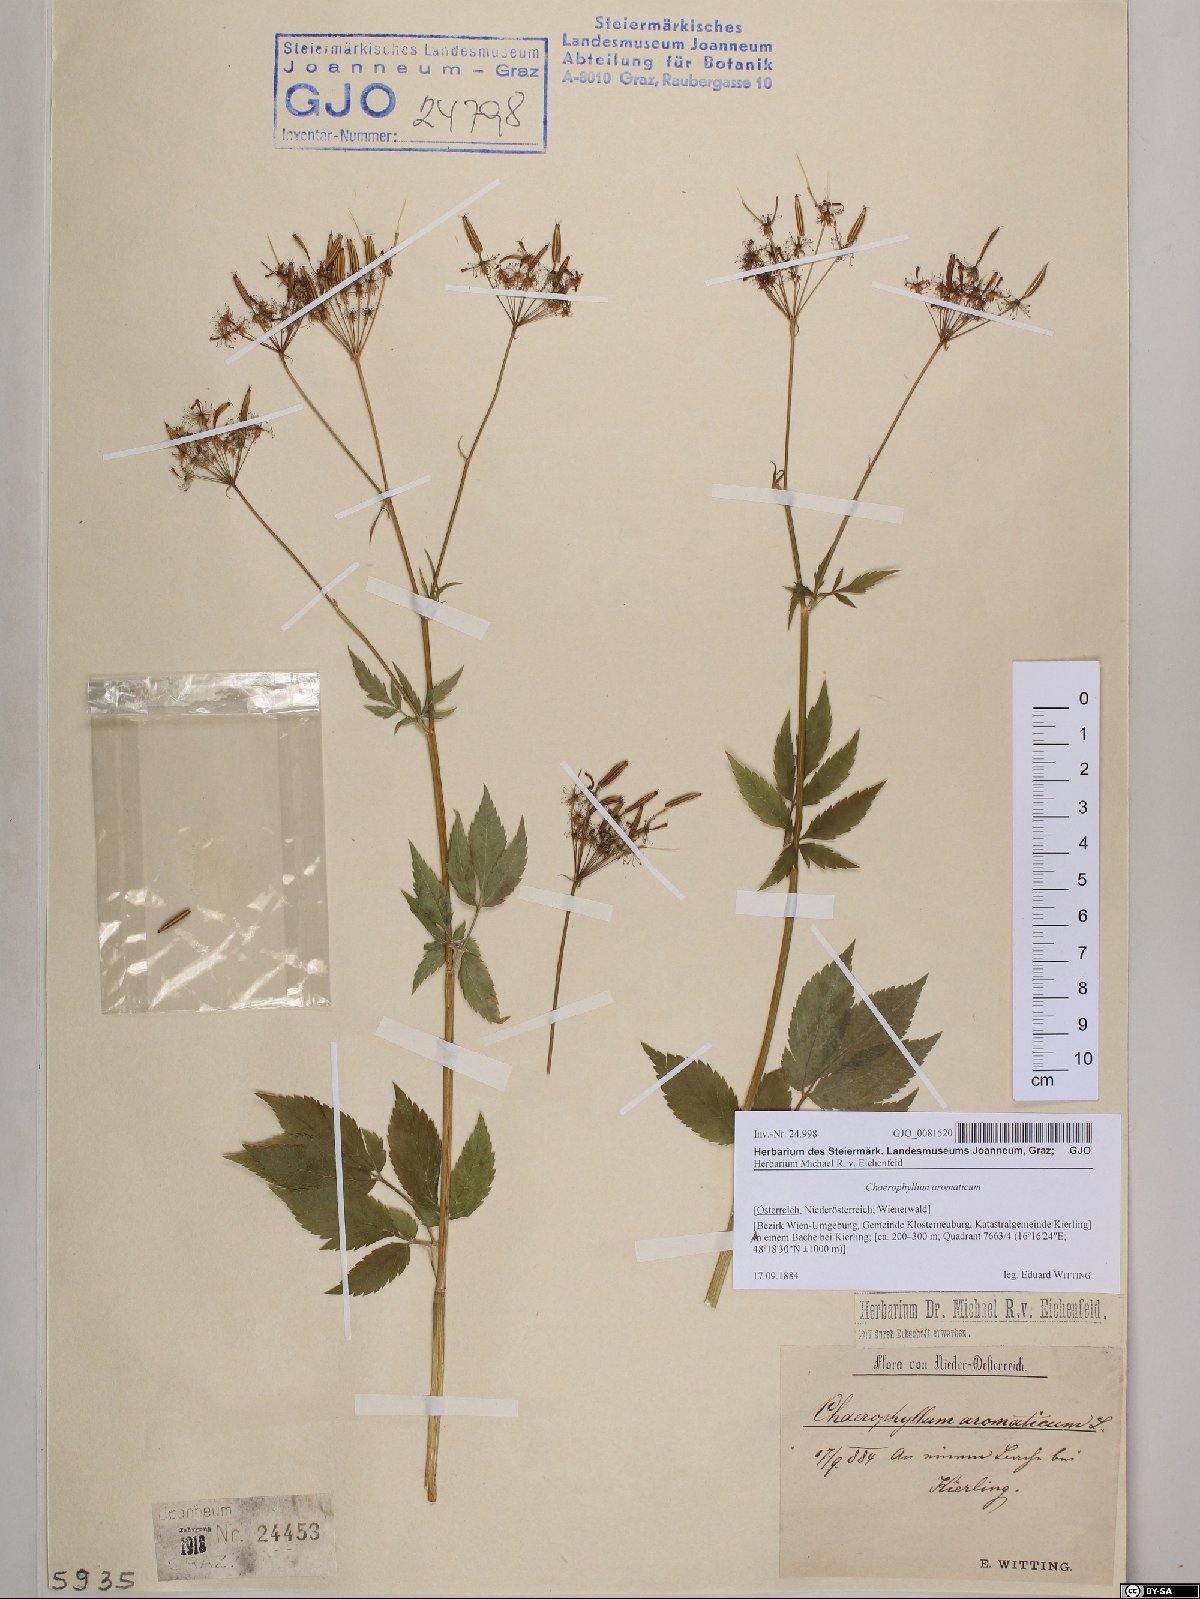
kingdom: Plantae
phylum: Tracheophyta
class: Magnoliopsida
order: Apiales
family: Apiaceae
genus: Chaerophyllum
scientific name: Chaerophyllum aromaticum
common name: Broadleaf chervil
